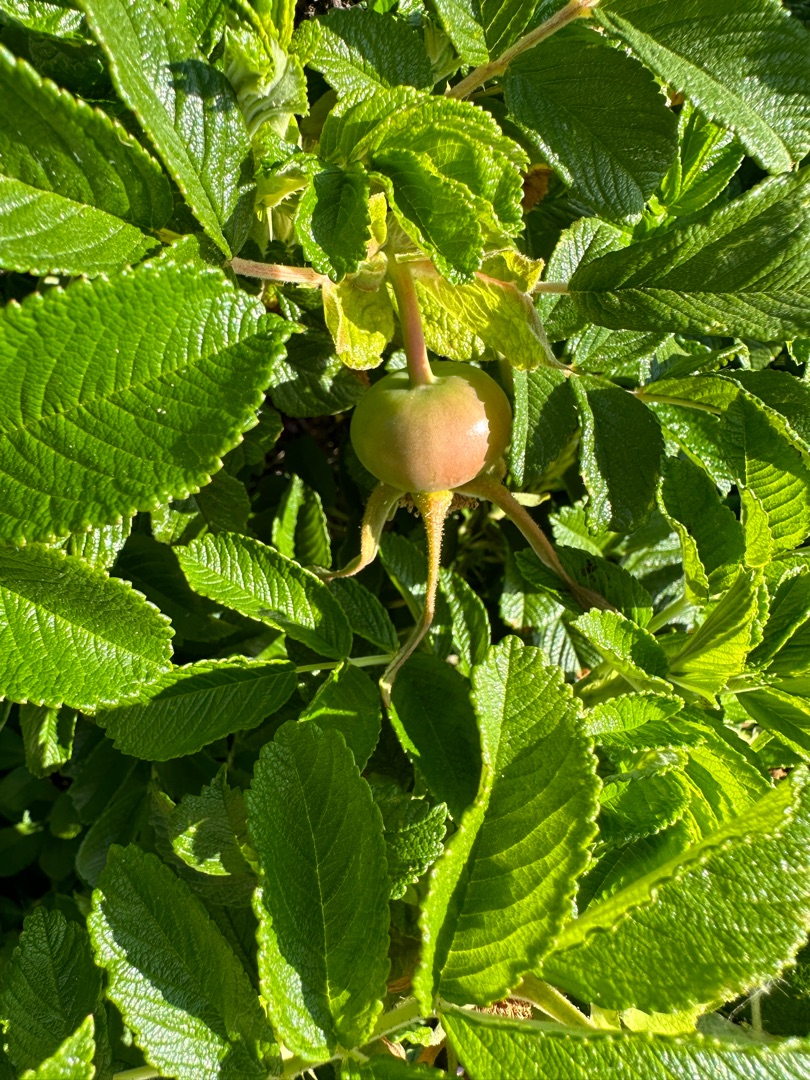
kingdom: Plantae
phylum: Tracheophyta
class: Magnoliopsida
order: Rosales
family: Rosaceae
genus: Rosa
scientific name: Rosa rugosa
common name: Rynket rose
